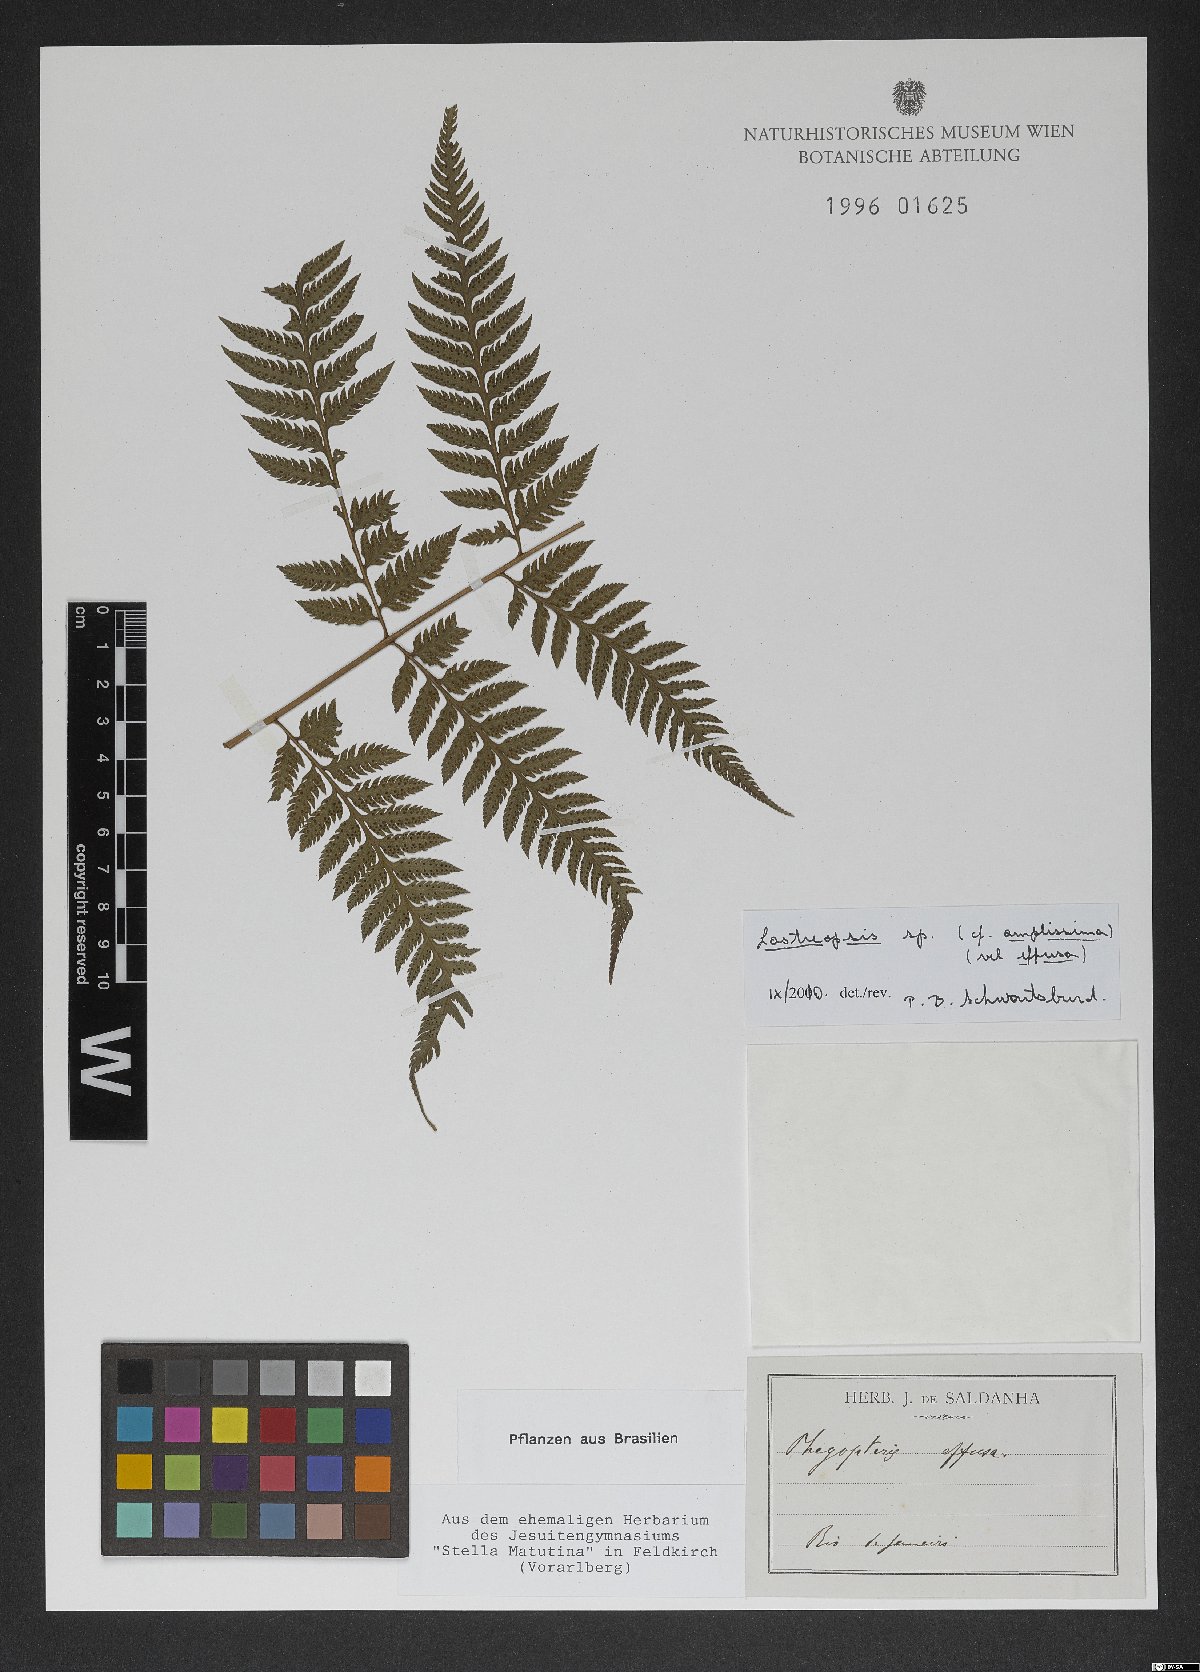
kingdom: Plantae
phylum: Tracheophyta
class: Polypodiopsida
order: Polypodiales
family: Dryopteridaceae
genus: Lastreopsis
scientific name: Lastreopsis
